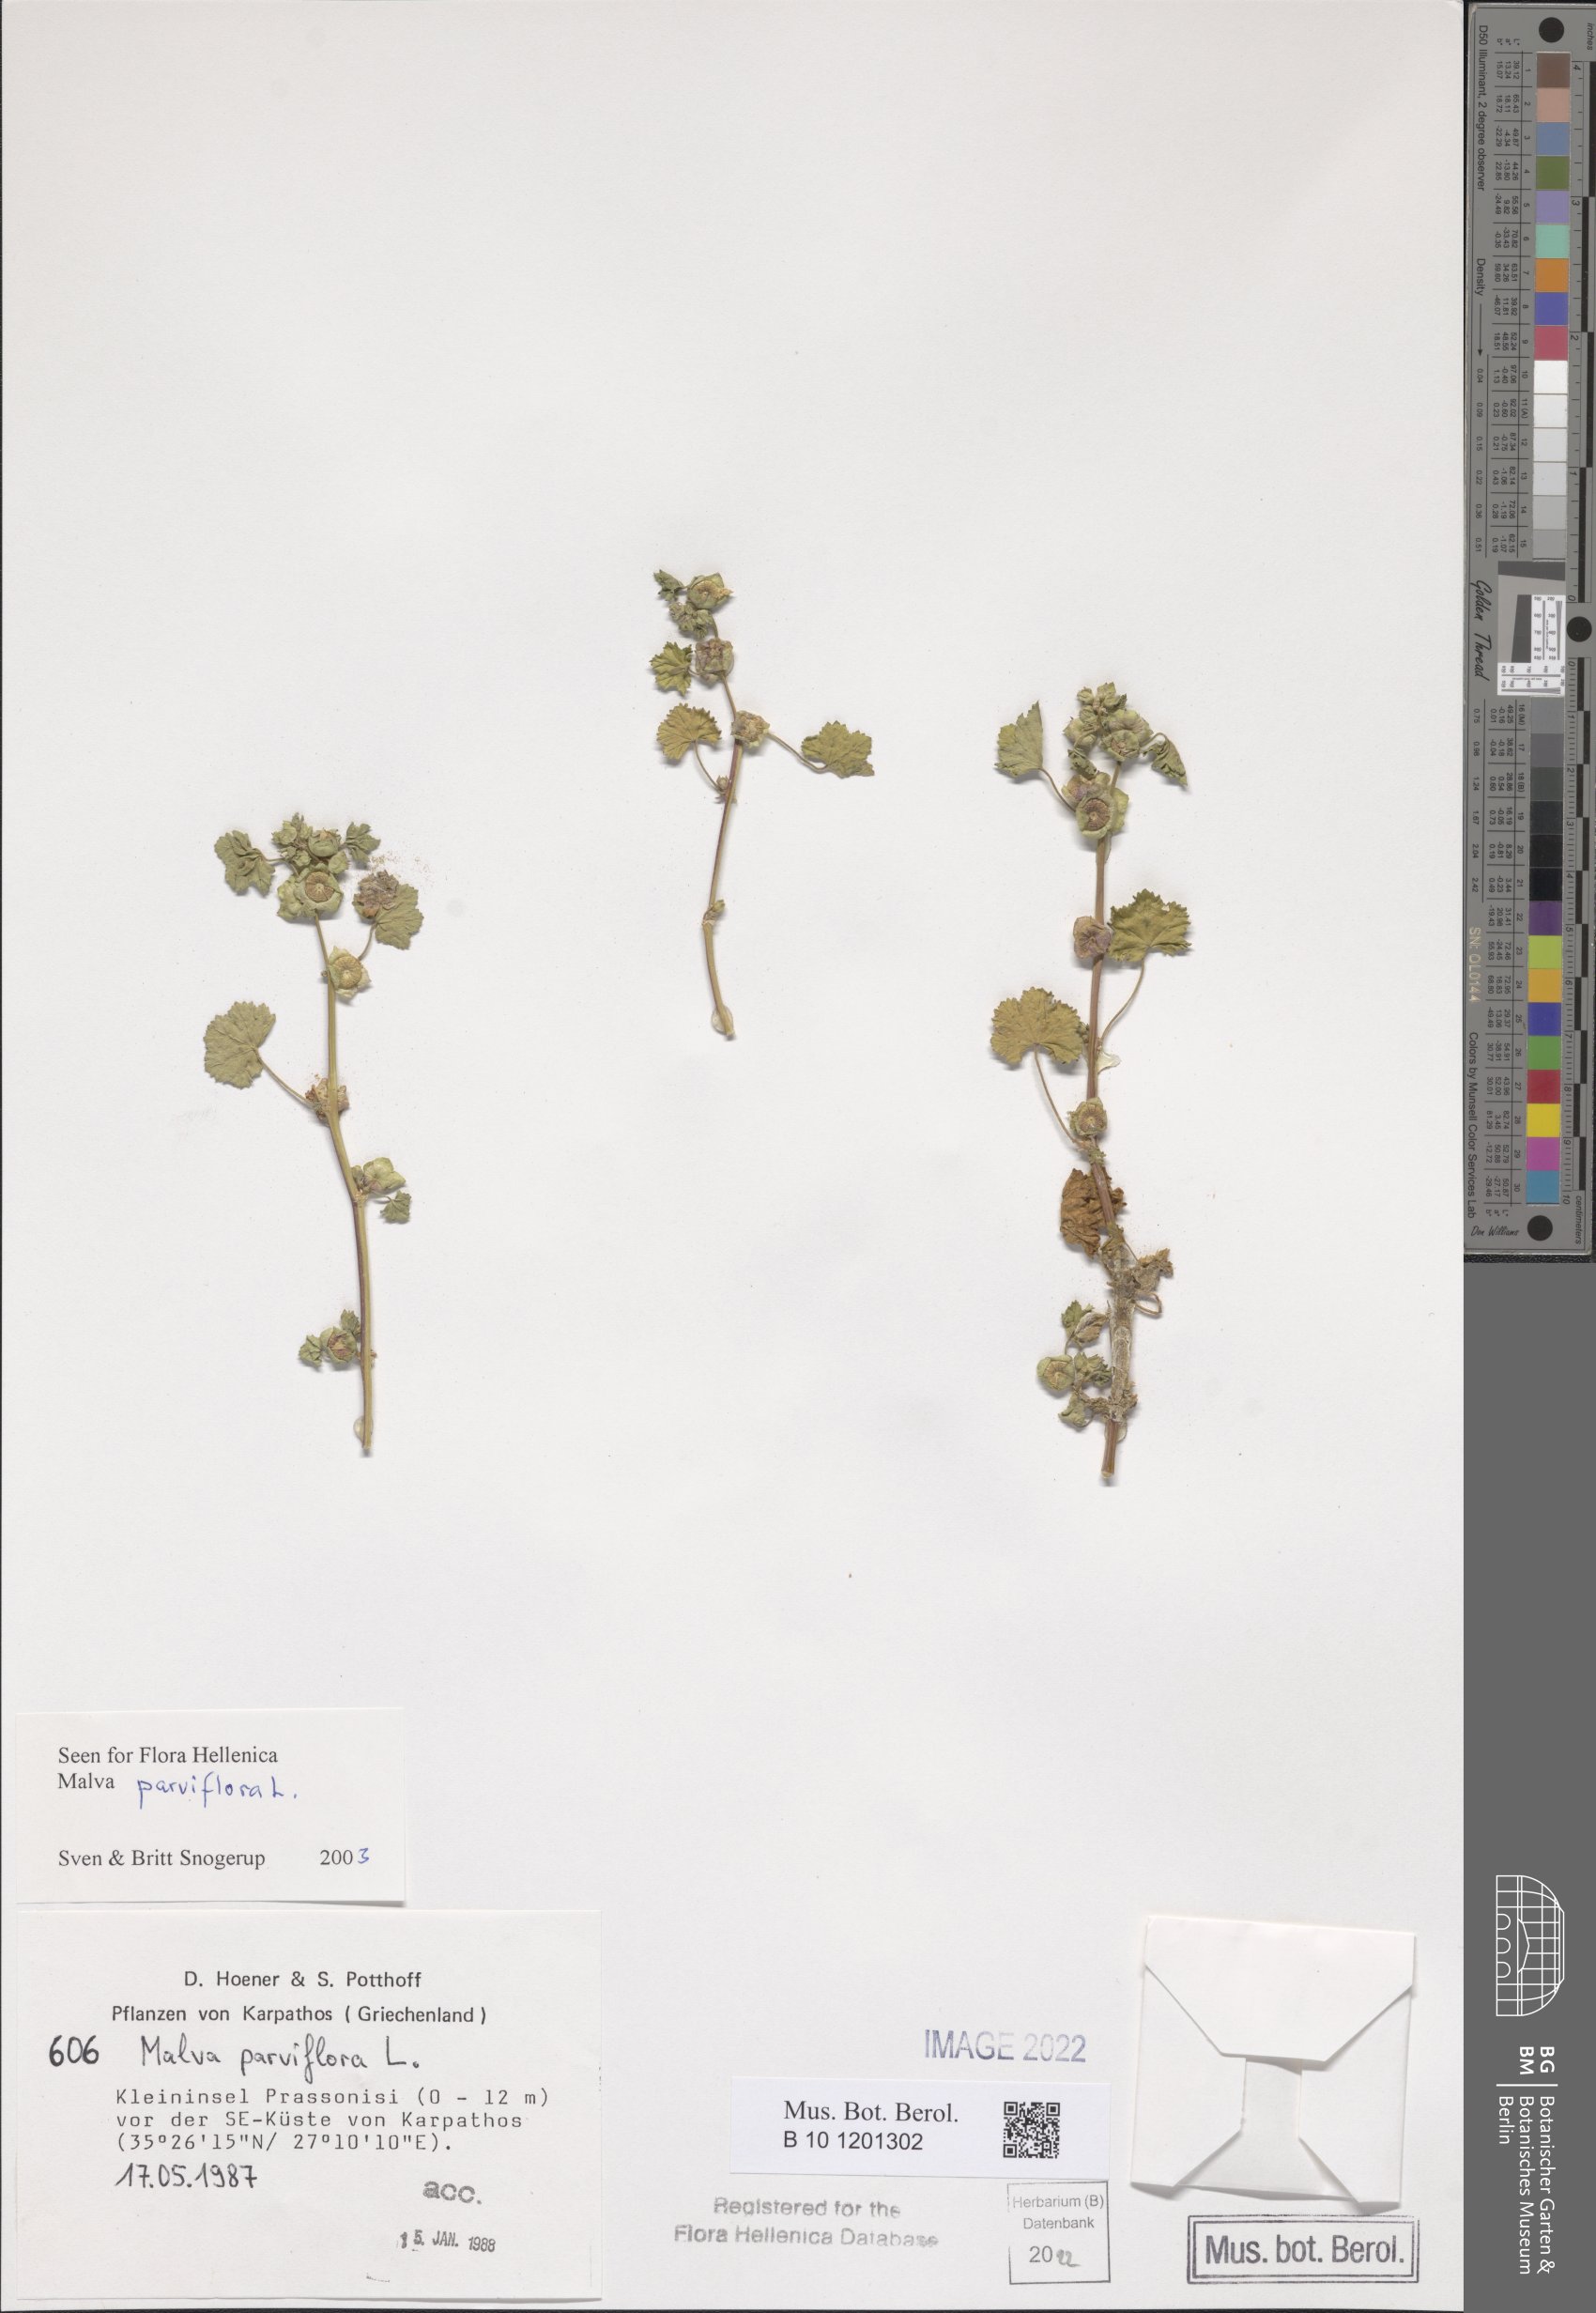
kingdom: Plantae
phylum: Tracheophyta
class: Magnoliopsida
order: Malvales
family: Malvaceae
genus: Malva
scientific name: Malva parviflora
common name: Least mallow
